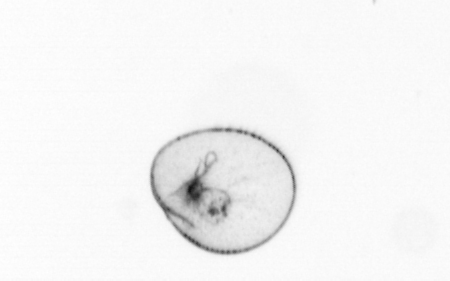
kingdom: Chromista
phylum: Myzozoa
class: Dinophyceae
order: Noctilucales
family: Noctilucaceae
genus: Noctiluca
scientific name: Noctiluca scintillans
